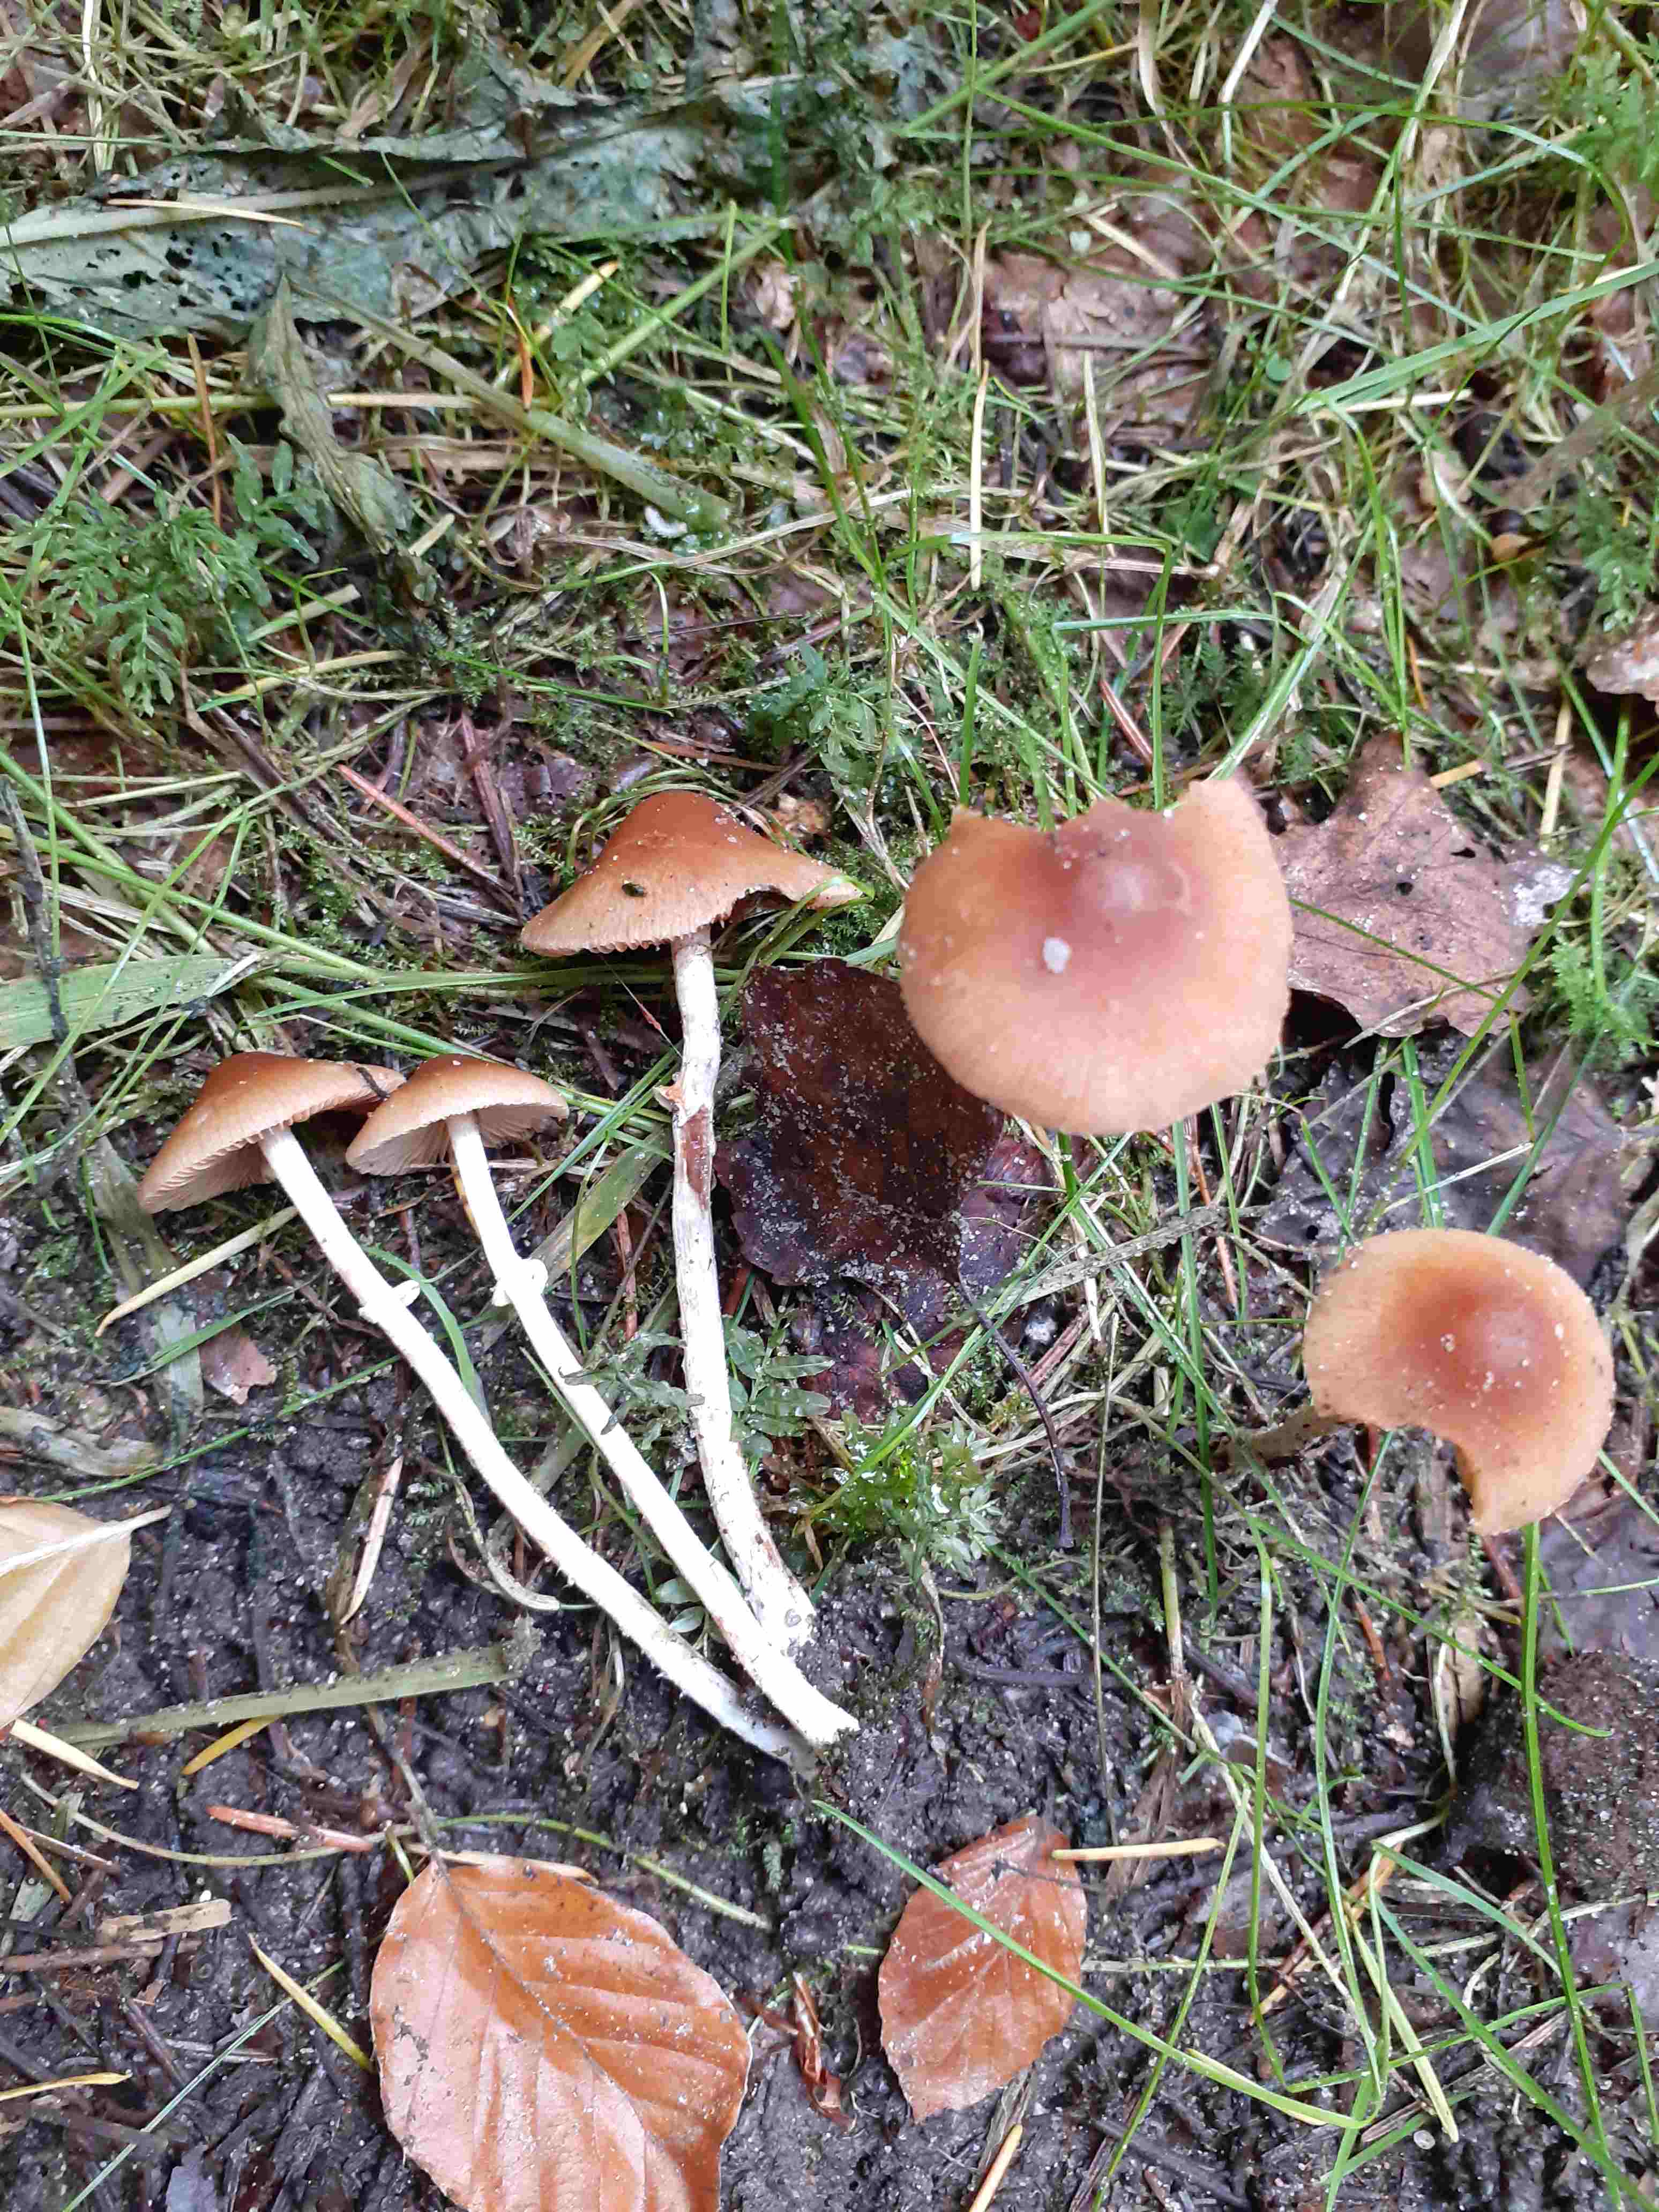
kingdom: Fungi
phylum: Basidiomycota
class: Agaricomycetes
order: Agaricales
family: Bolbitiaceae
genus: Conocybe
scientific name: Conocybe arrhenii
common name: ring-dansehat
